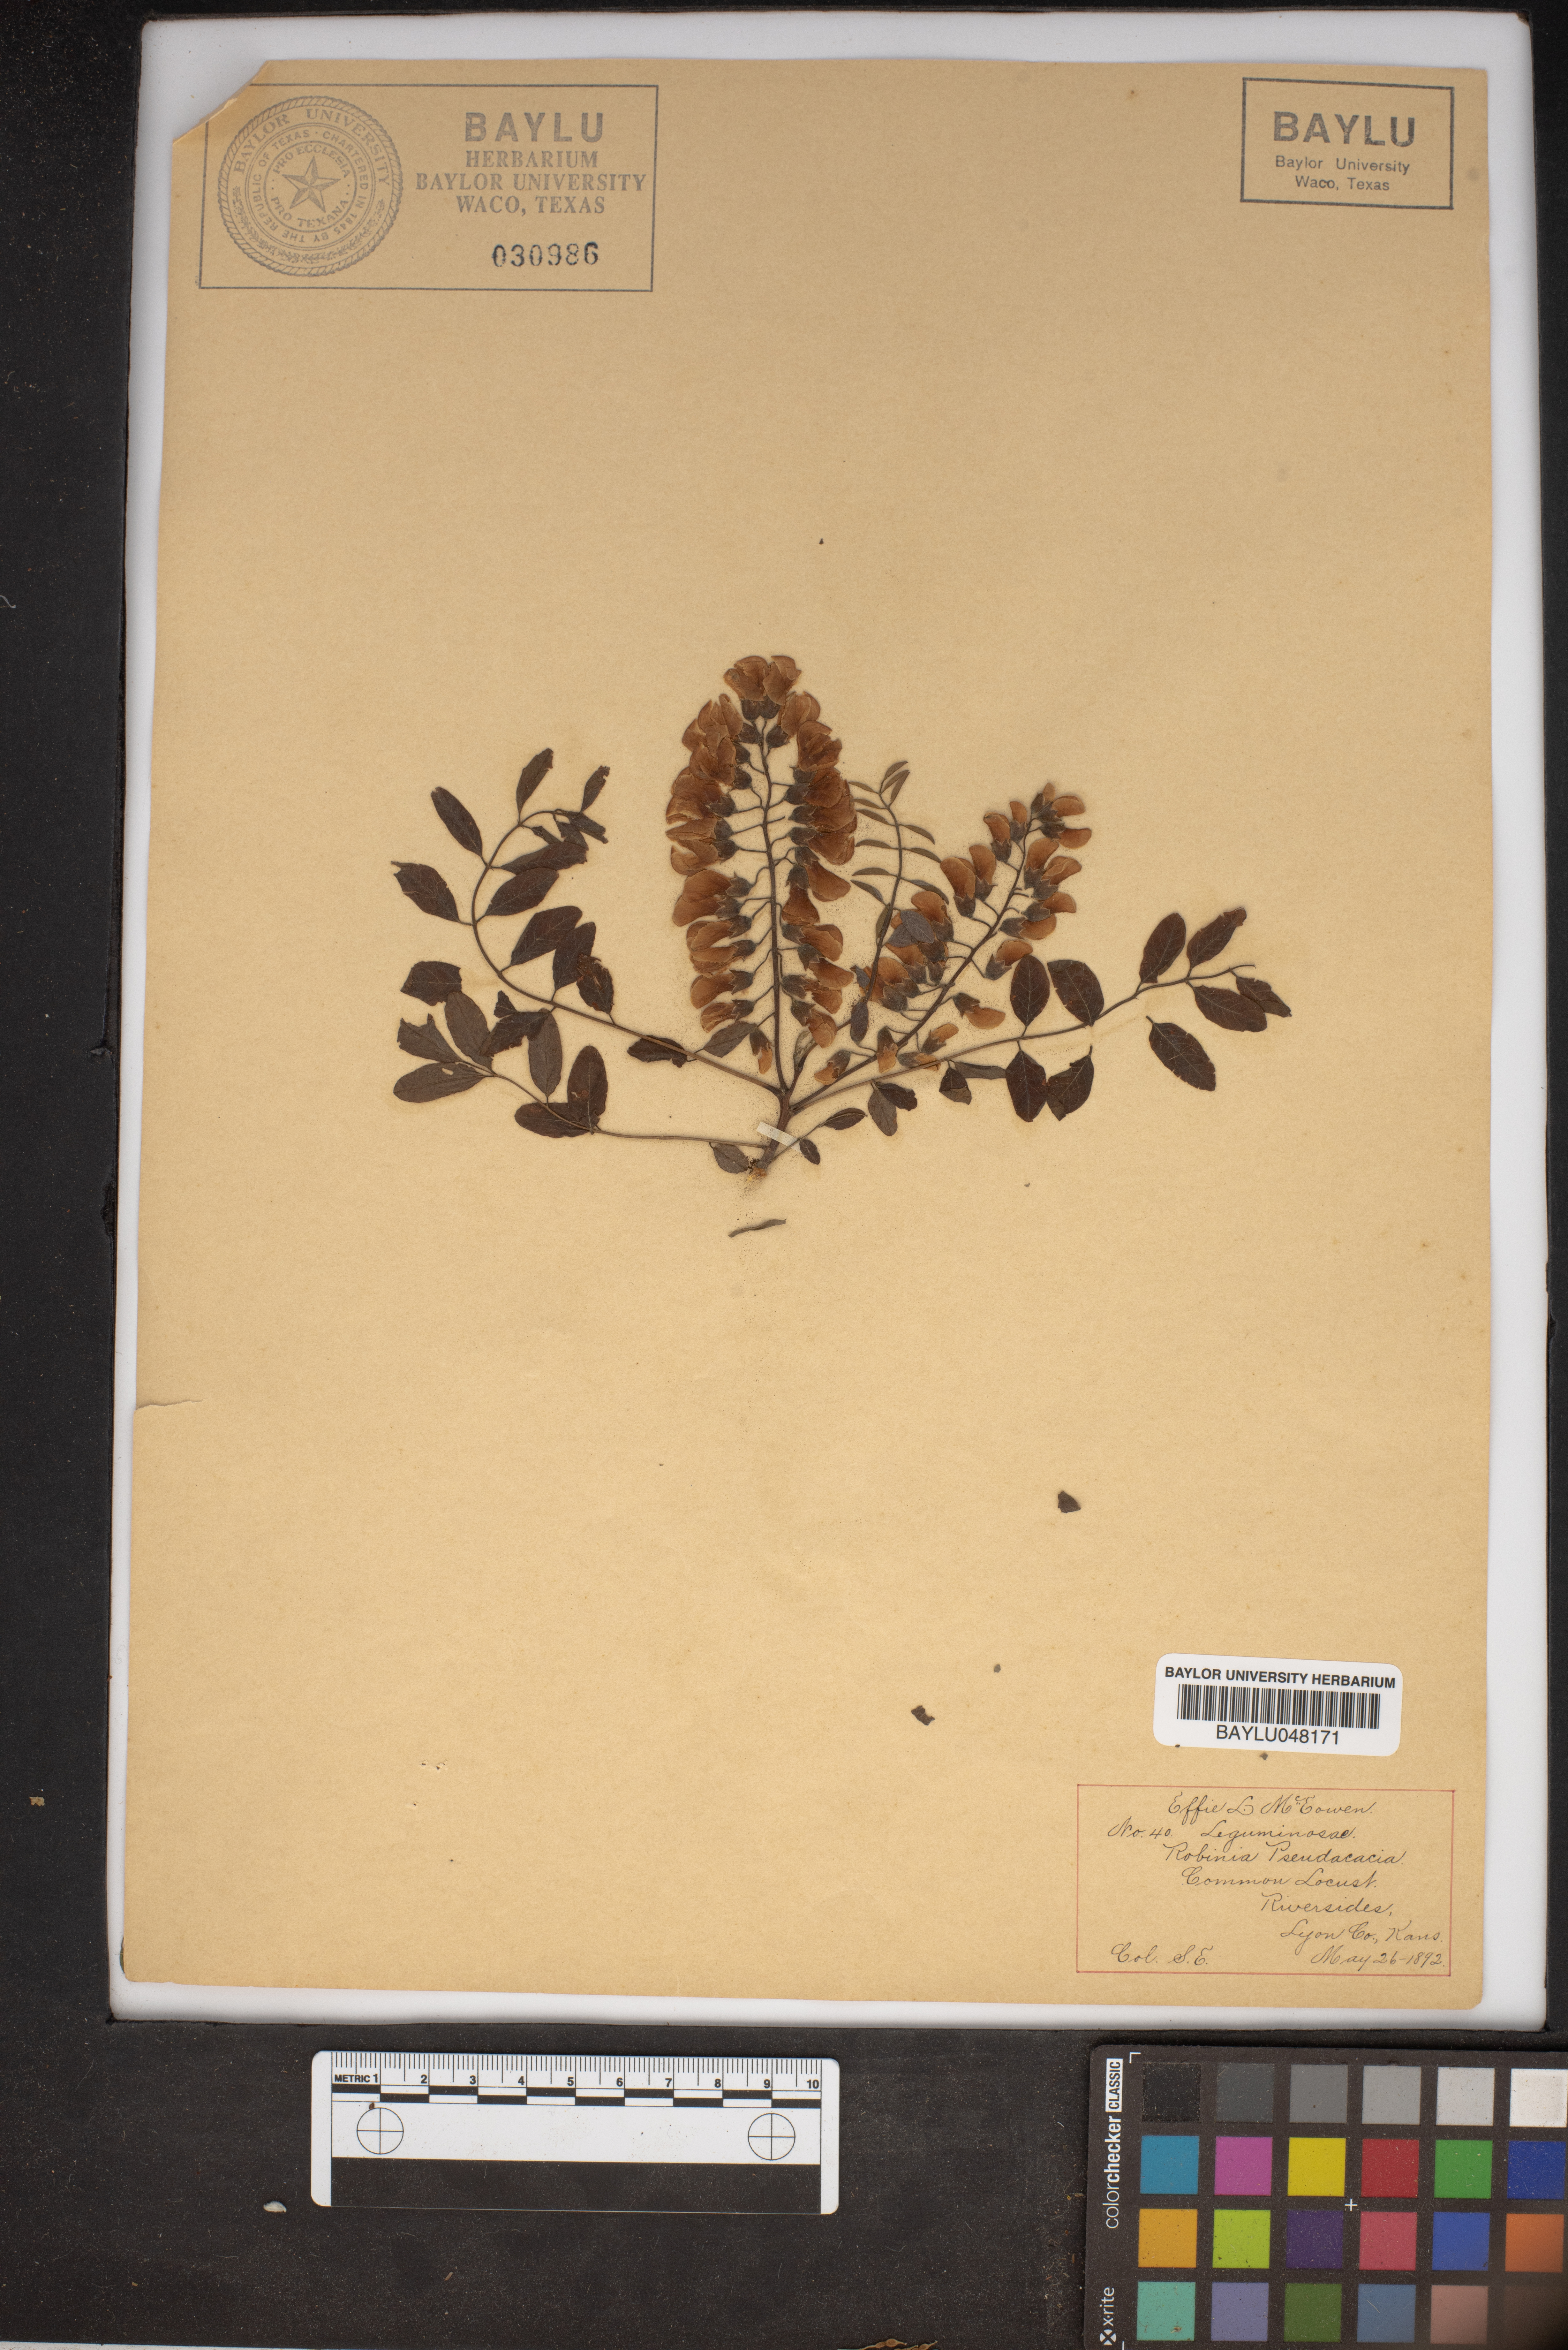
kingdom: Plantae
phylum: Tracheophyta
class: Magnoliopsida
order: Fabales
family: Fabaceae
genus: Robinia
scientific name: Robinia pseudoacacia
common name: Black locust
